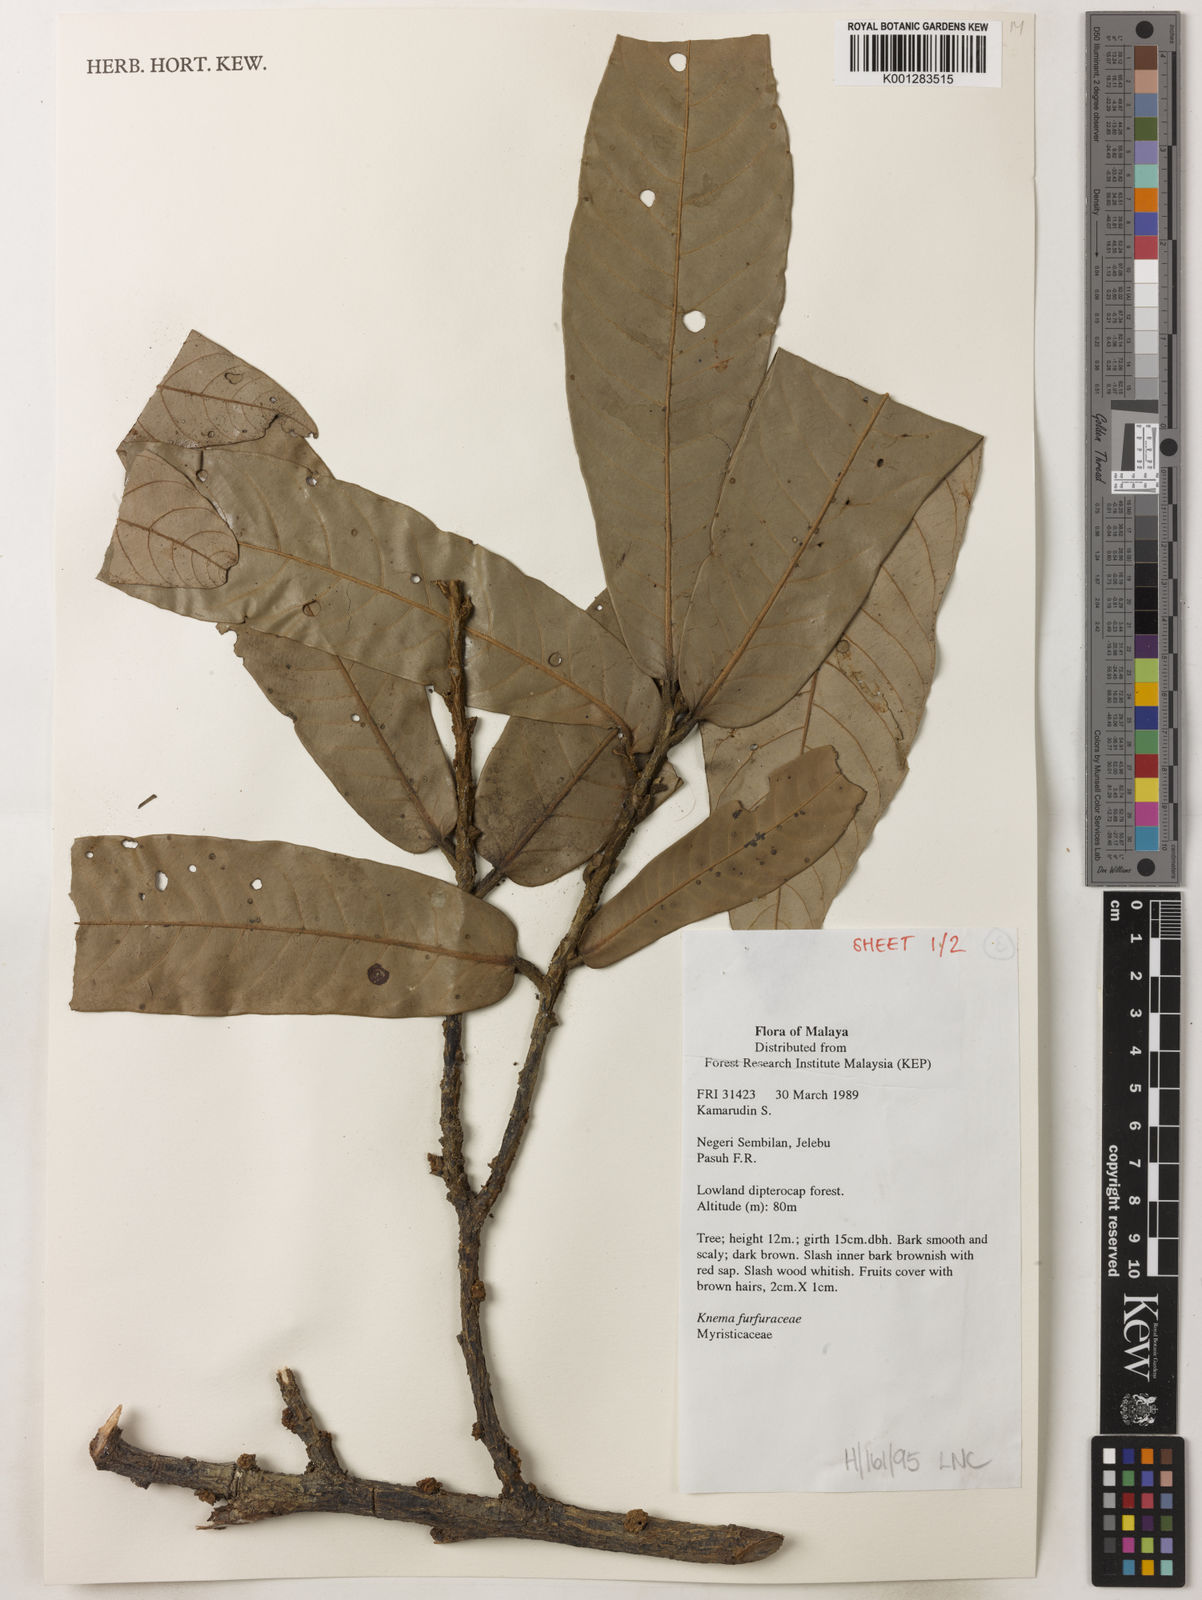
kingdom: Plantae
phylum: Tracheophyta
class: Magnoliopsida
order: Magnoliales
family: Myristicaceae
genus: Knema
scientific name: Knema furfuracea
